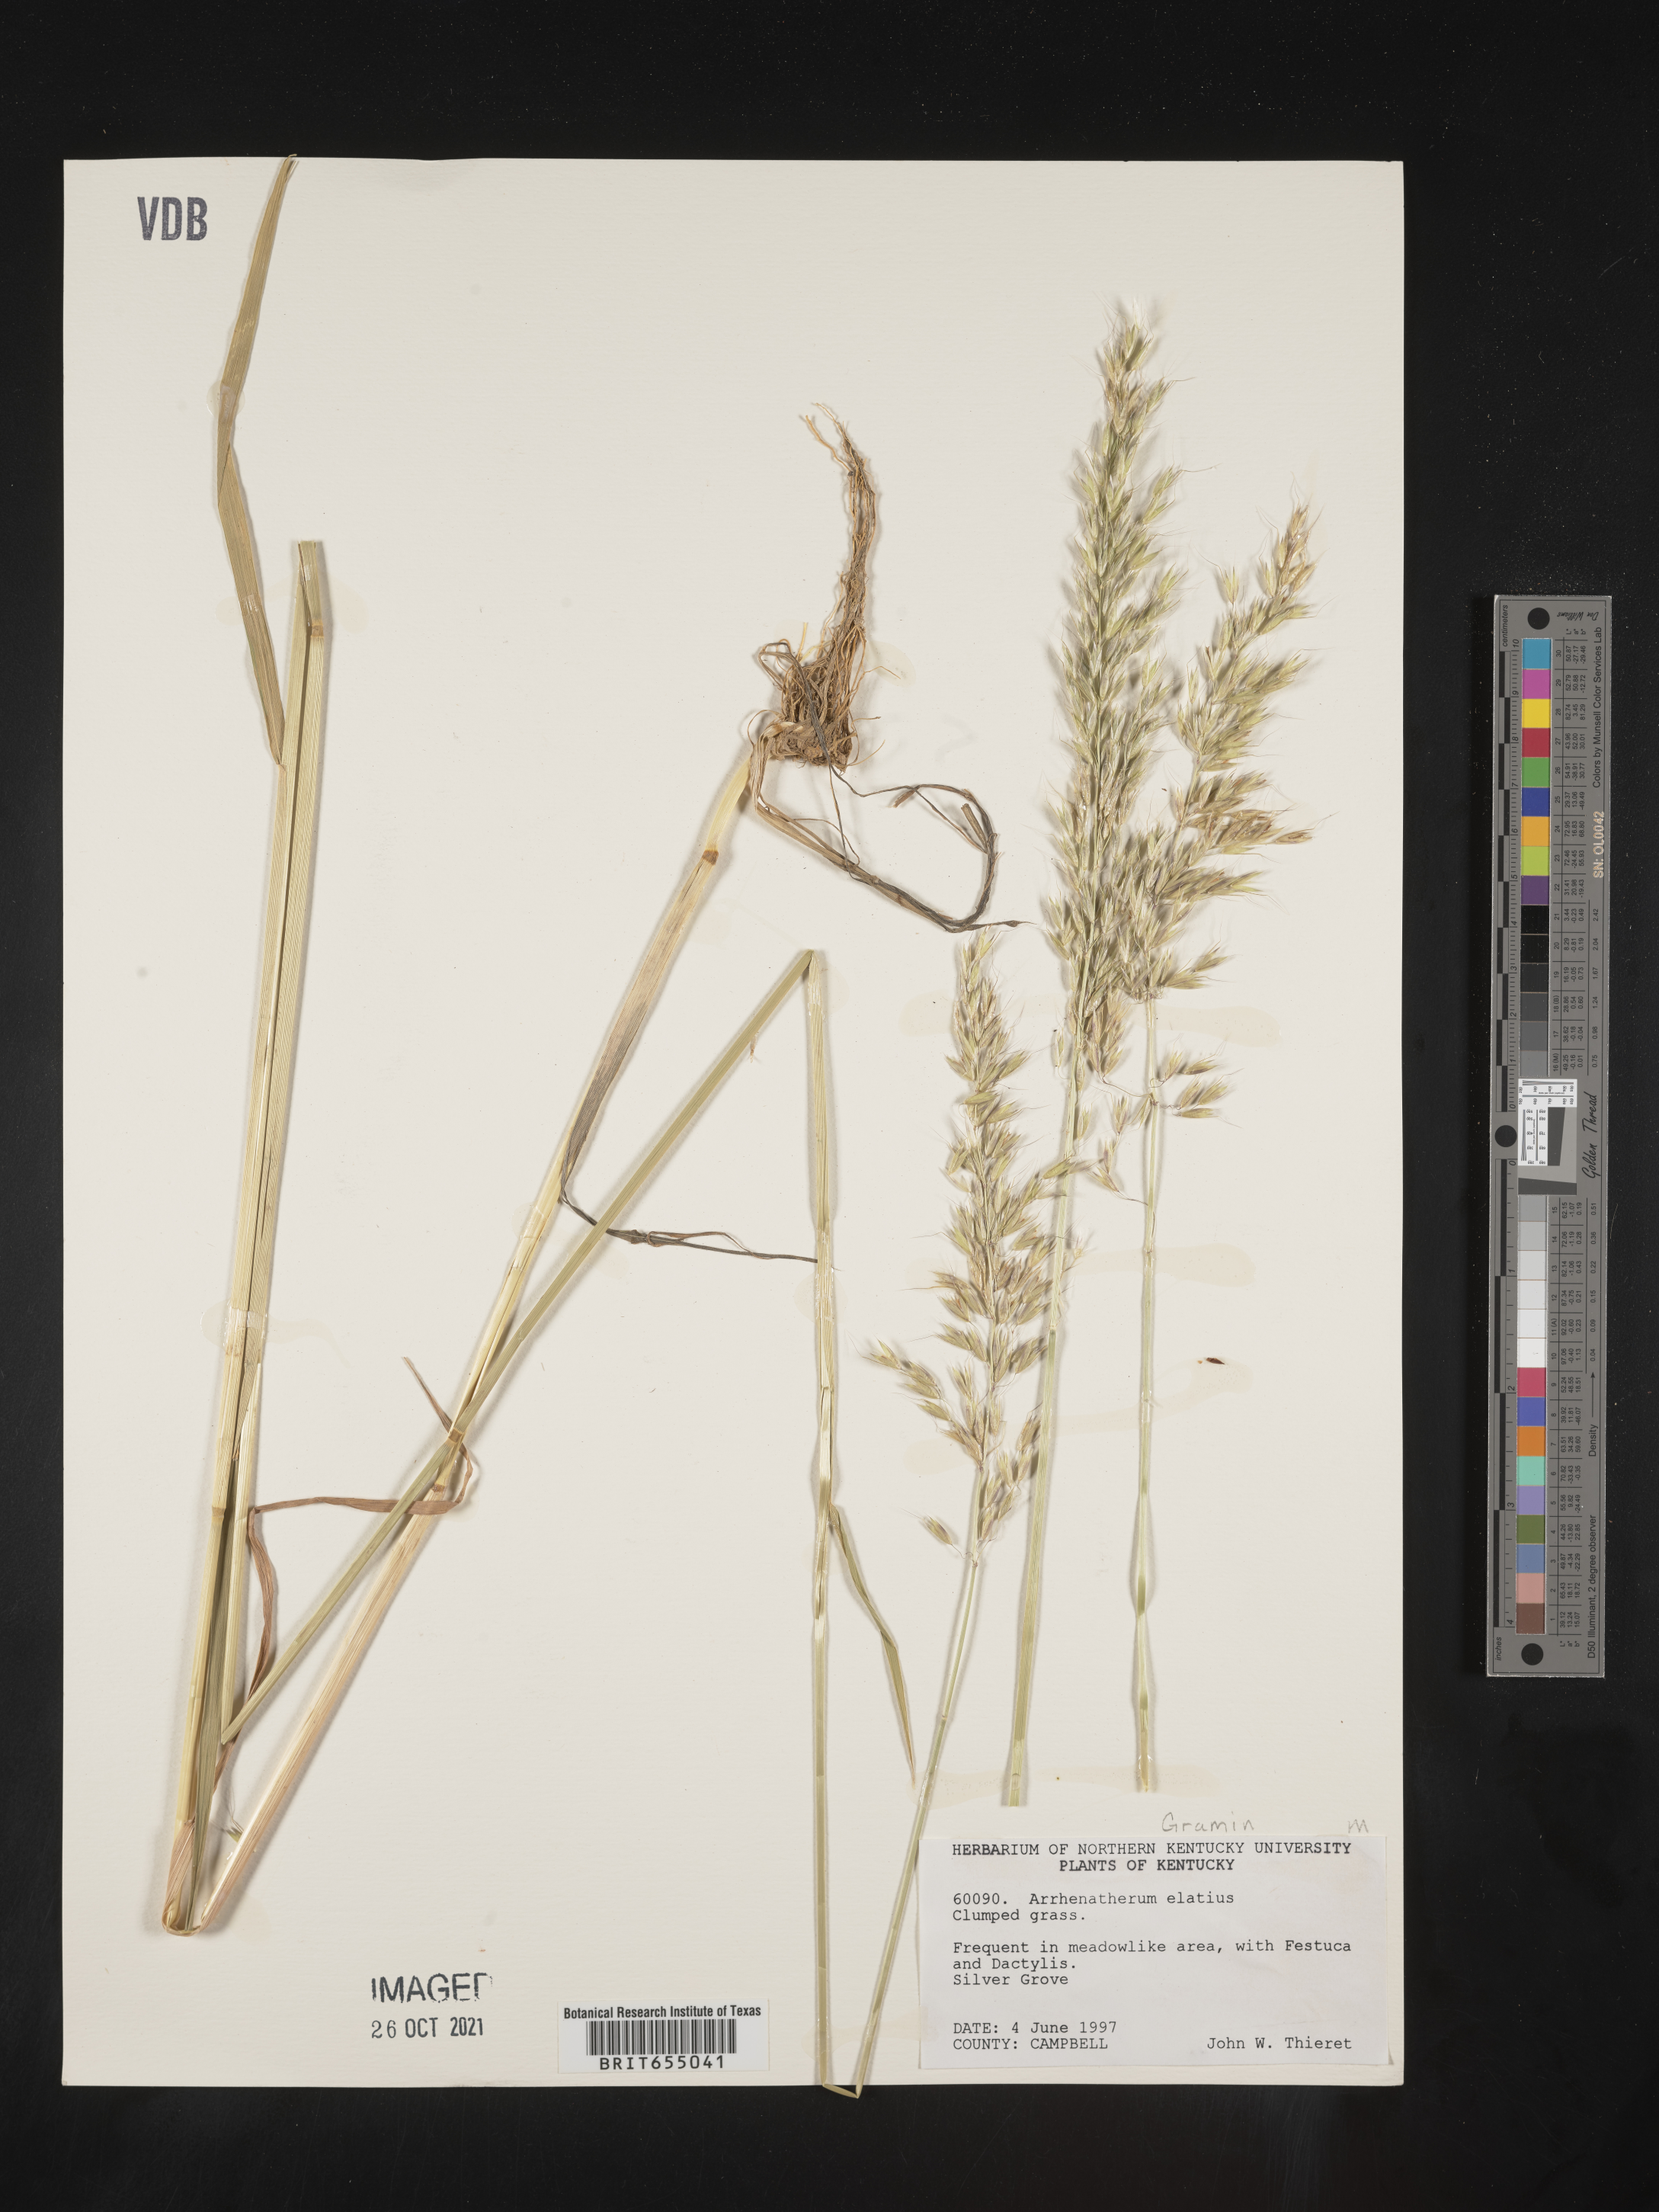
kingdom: Plantae
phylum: Tracheophyta
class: Liliopsida
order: Poales
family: Poaceae
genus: Arrhenatherum
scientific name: Arrhenatherum
